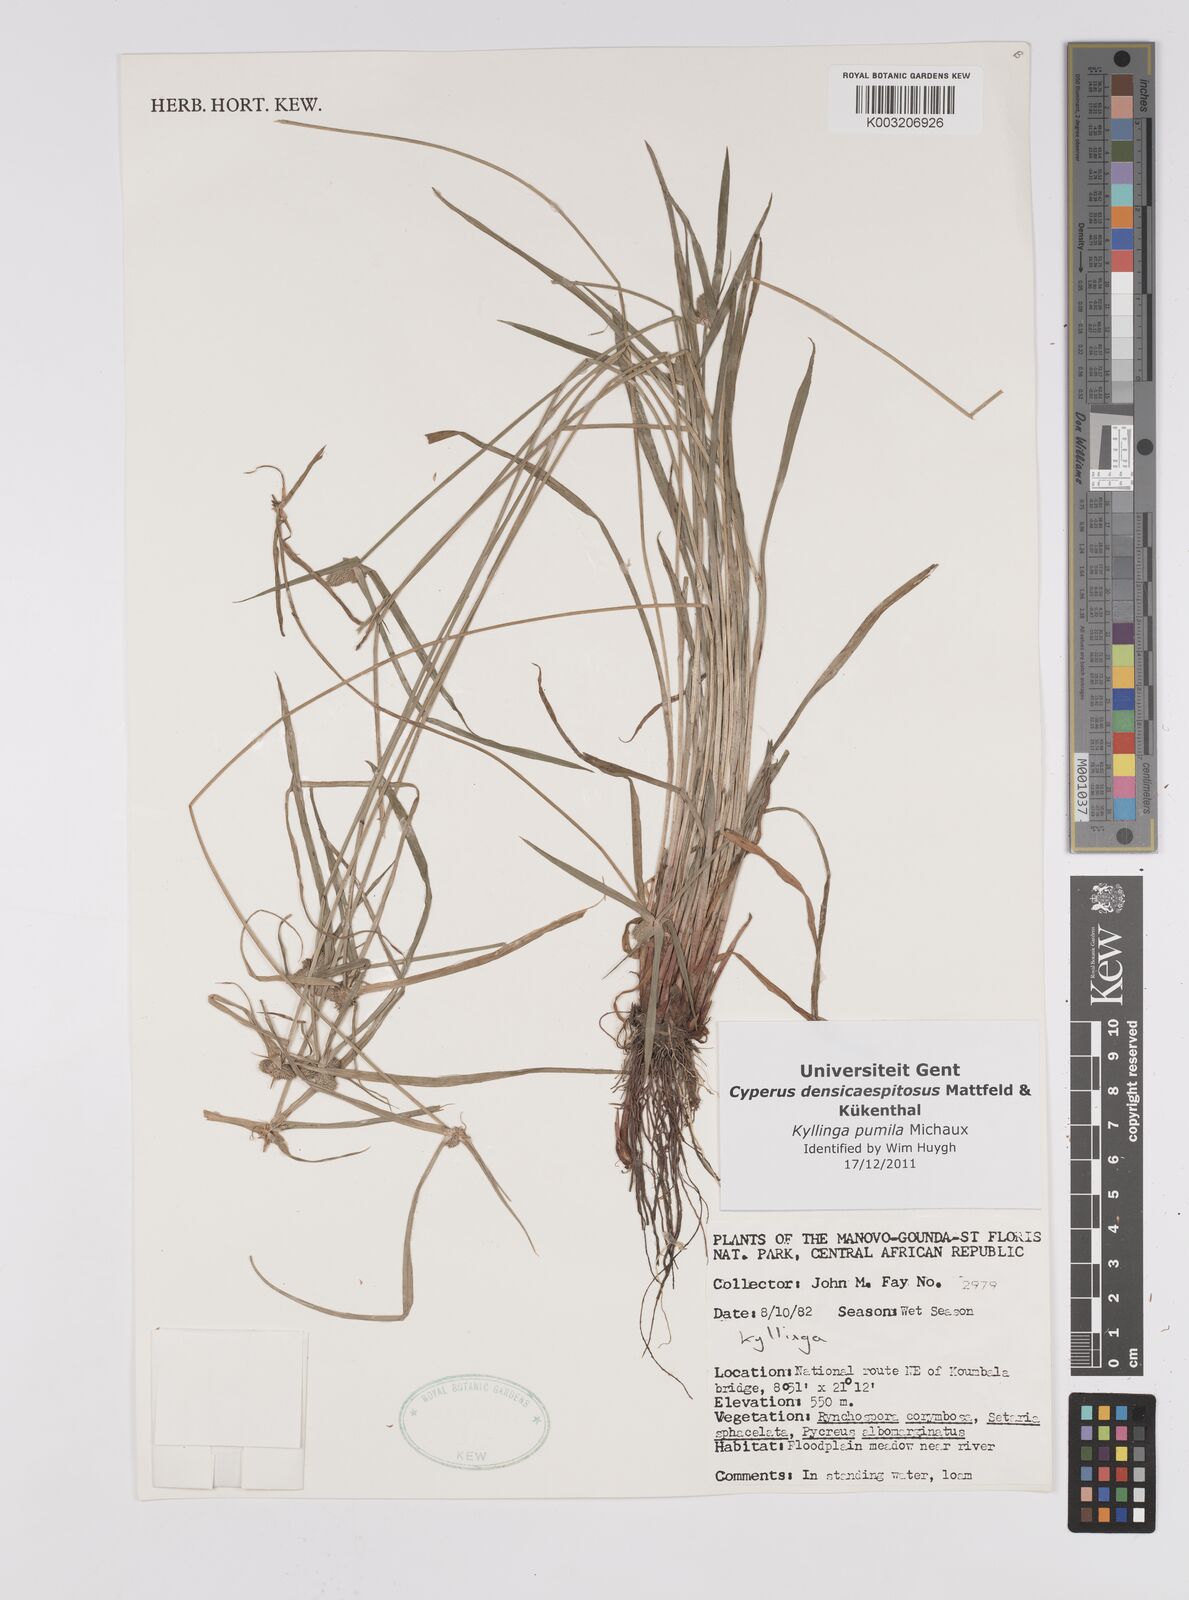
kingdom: Plantae
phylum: Tracheophyta
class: Liliopsida
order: Poales
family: Cyperaceae
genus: Cyperus
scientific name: Cyperus hortensis
